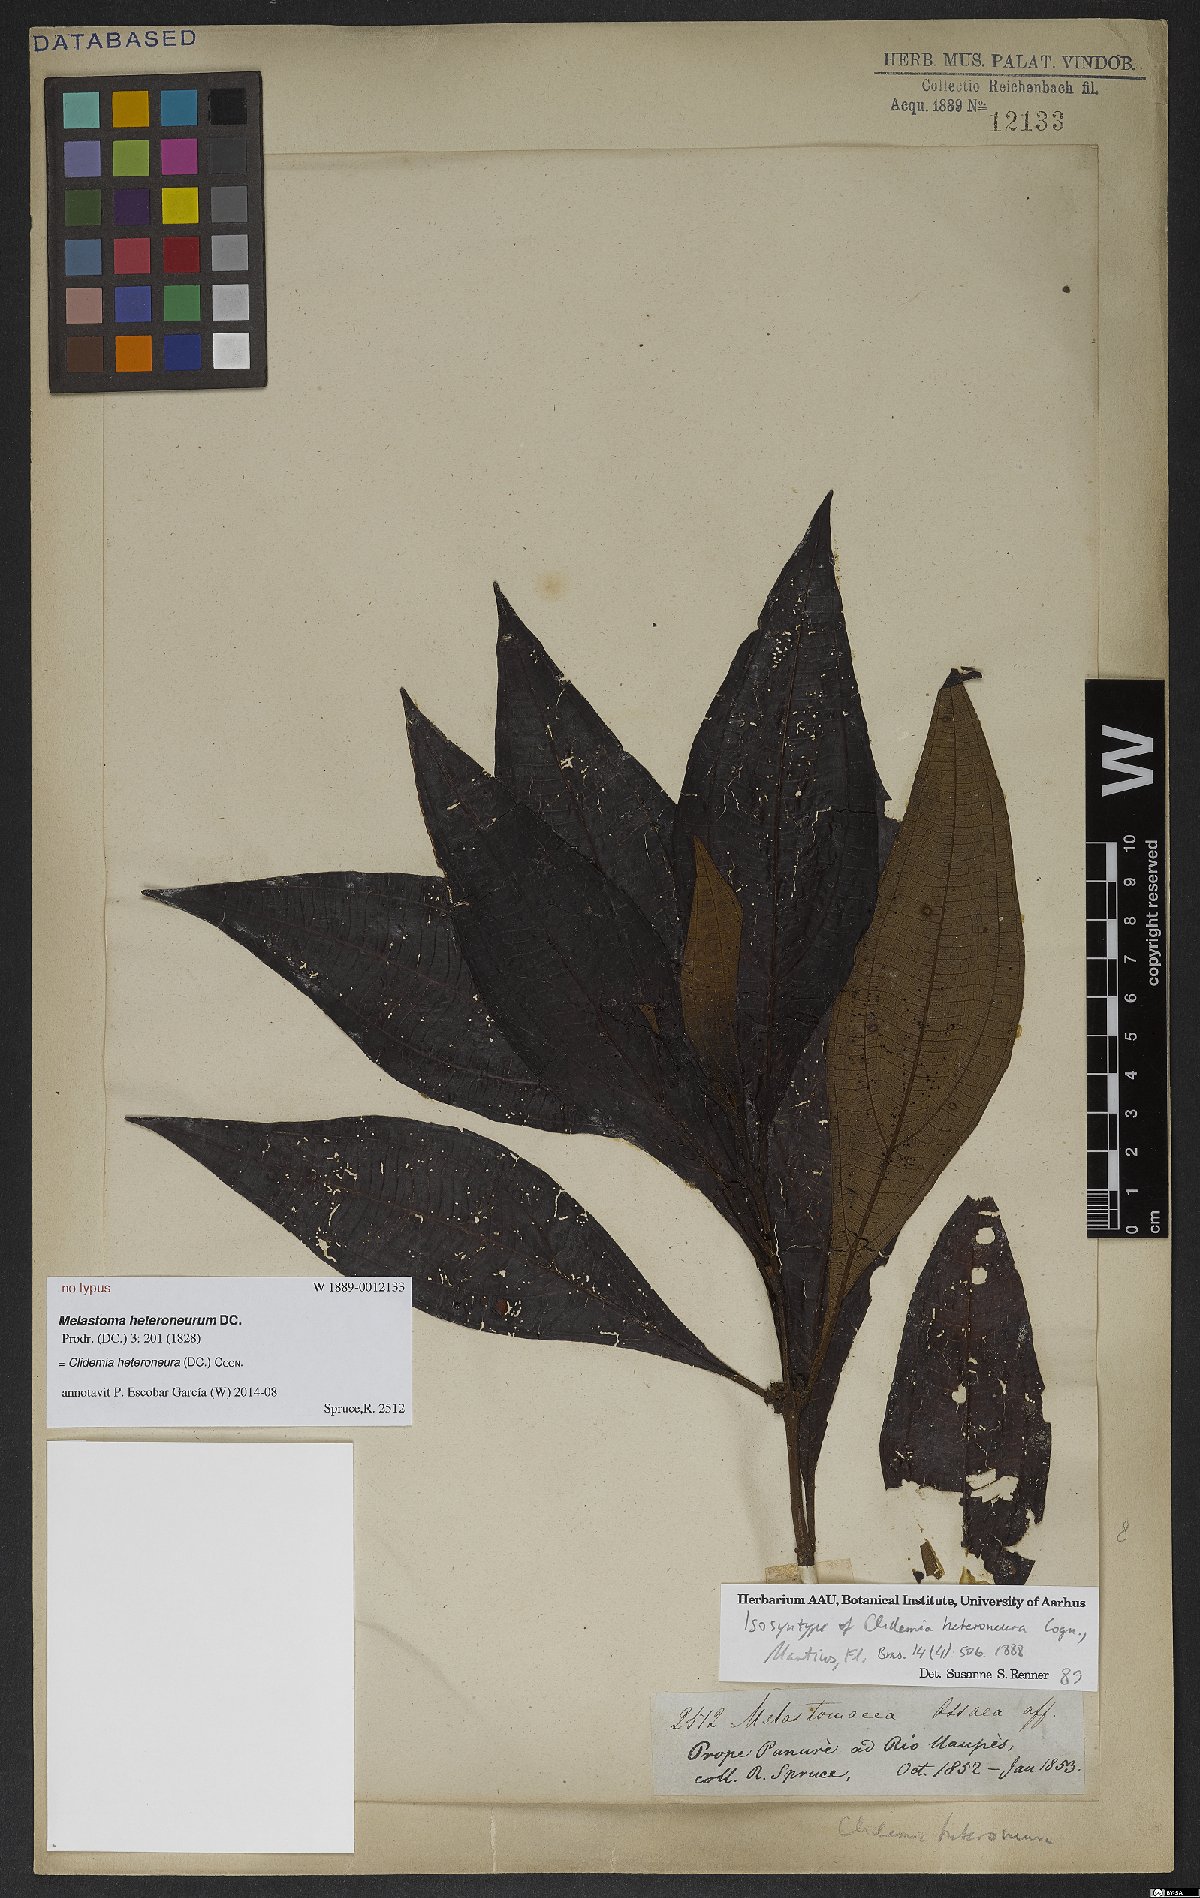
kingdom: Plantae
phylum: Tracheophyta
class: Magnoliopsida
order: Myrtales
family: Melastomataceae
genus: Miconia
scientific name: Miconia heteroneura
